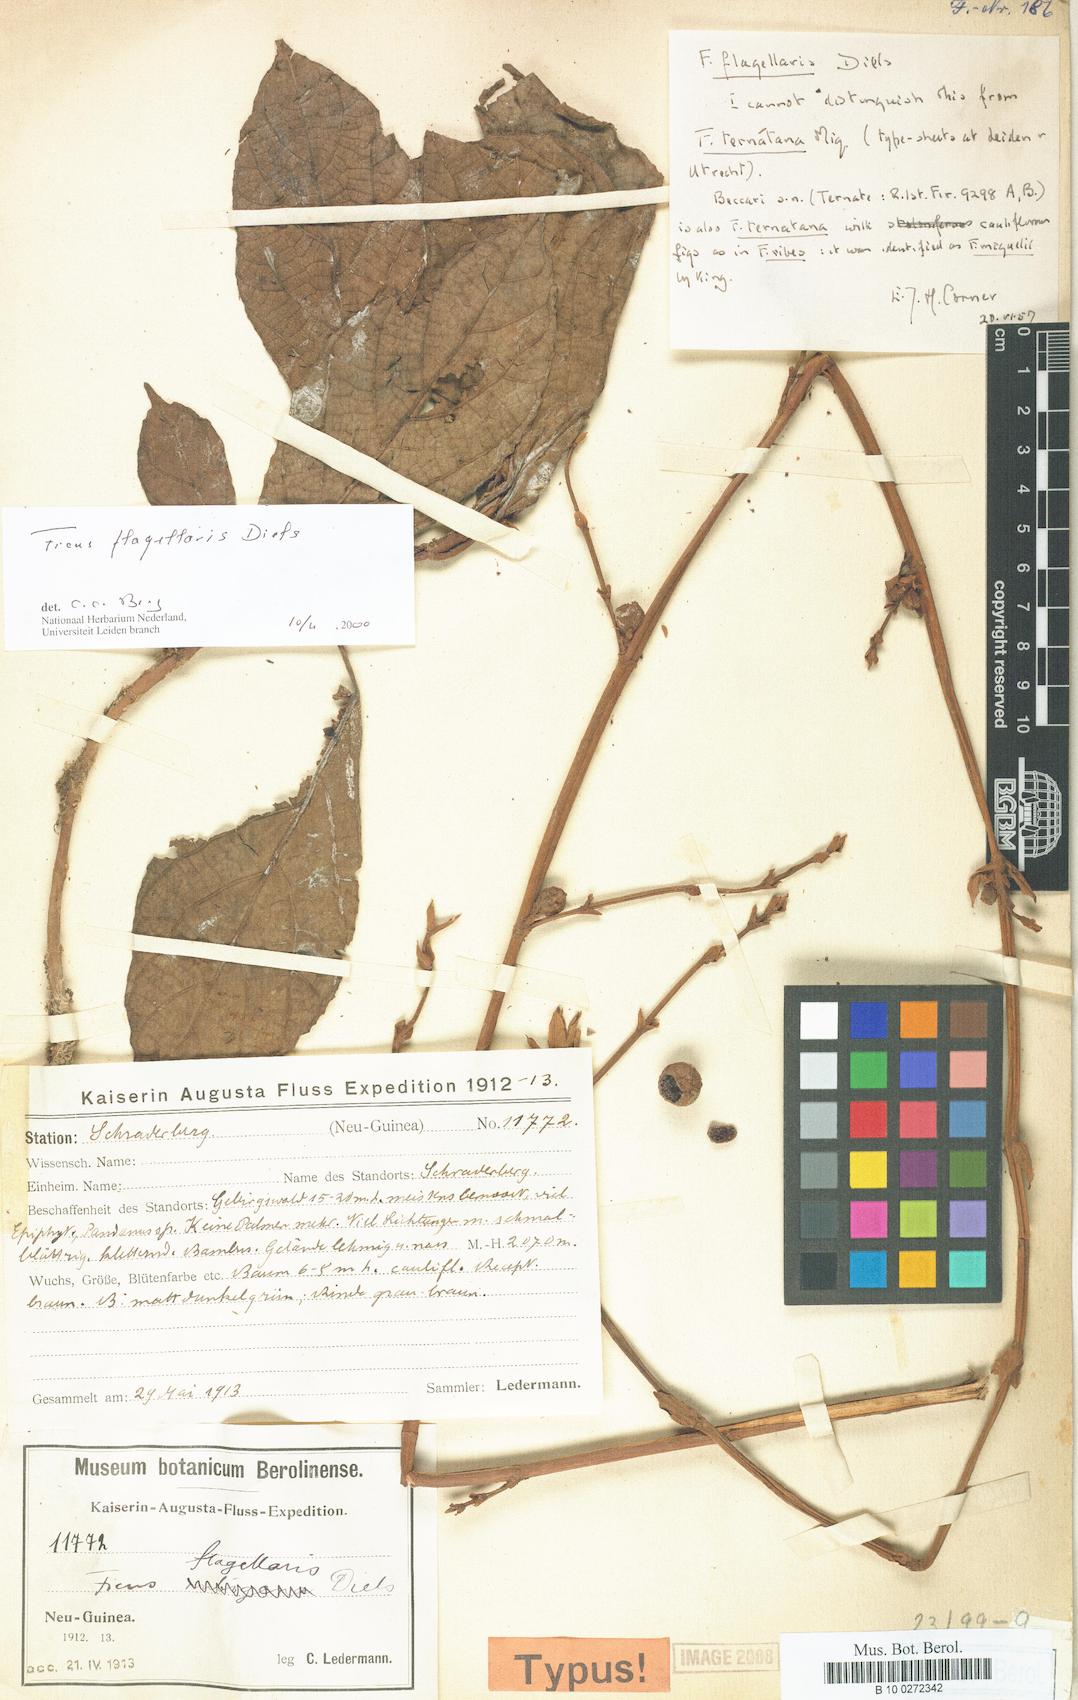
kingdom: Plantae
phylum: Tracheophyta
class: Magnoliopsida
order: Rosales
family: Moraceae
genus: Ficus
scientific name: Ficus flagellaris
